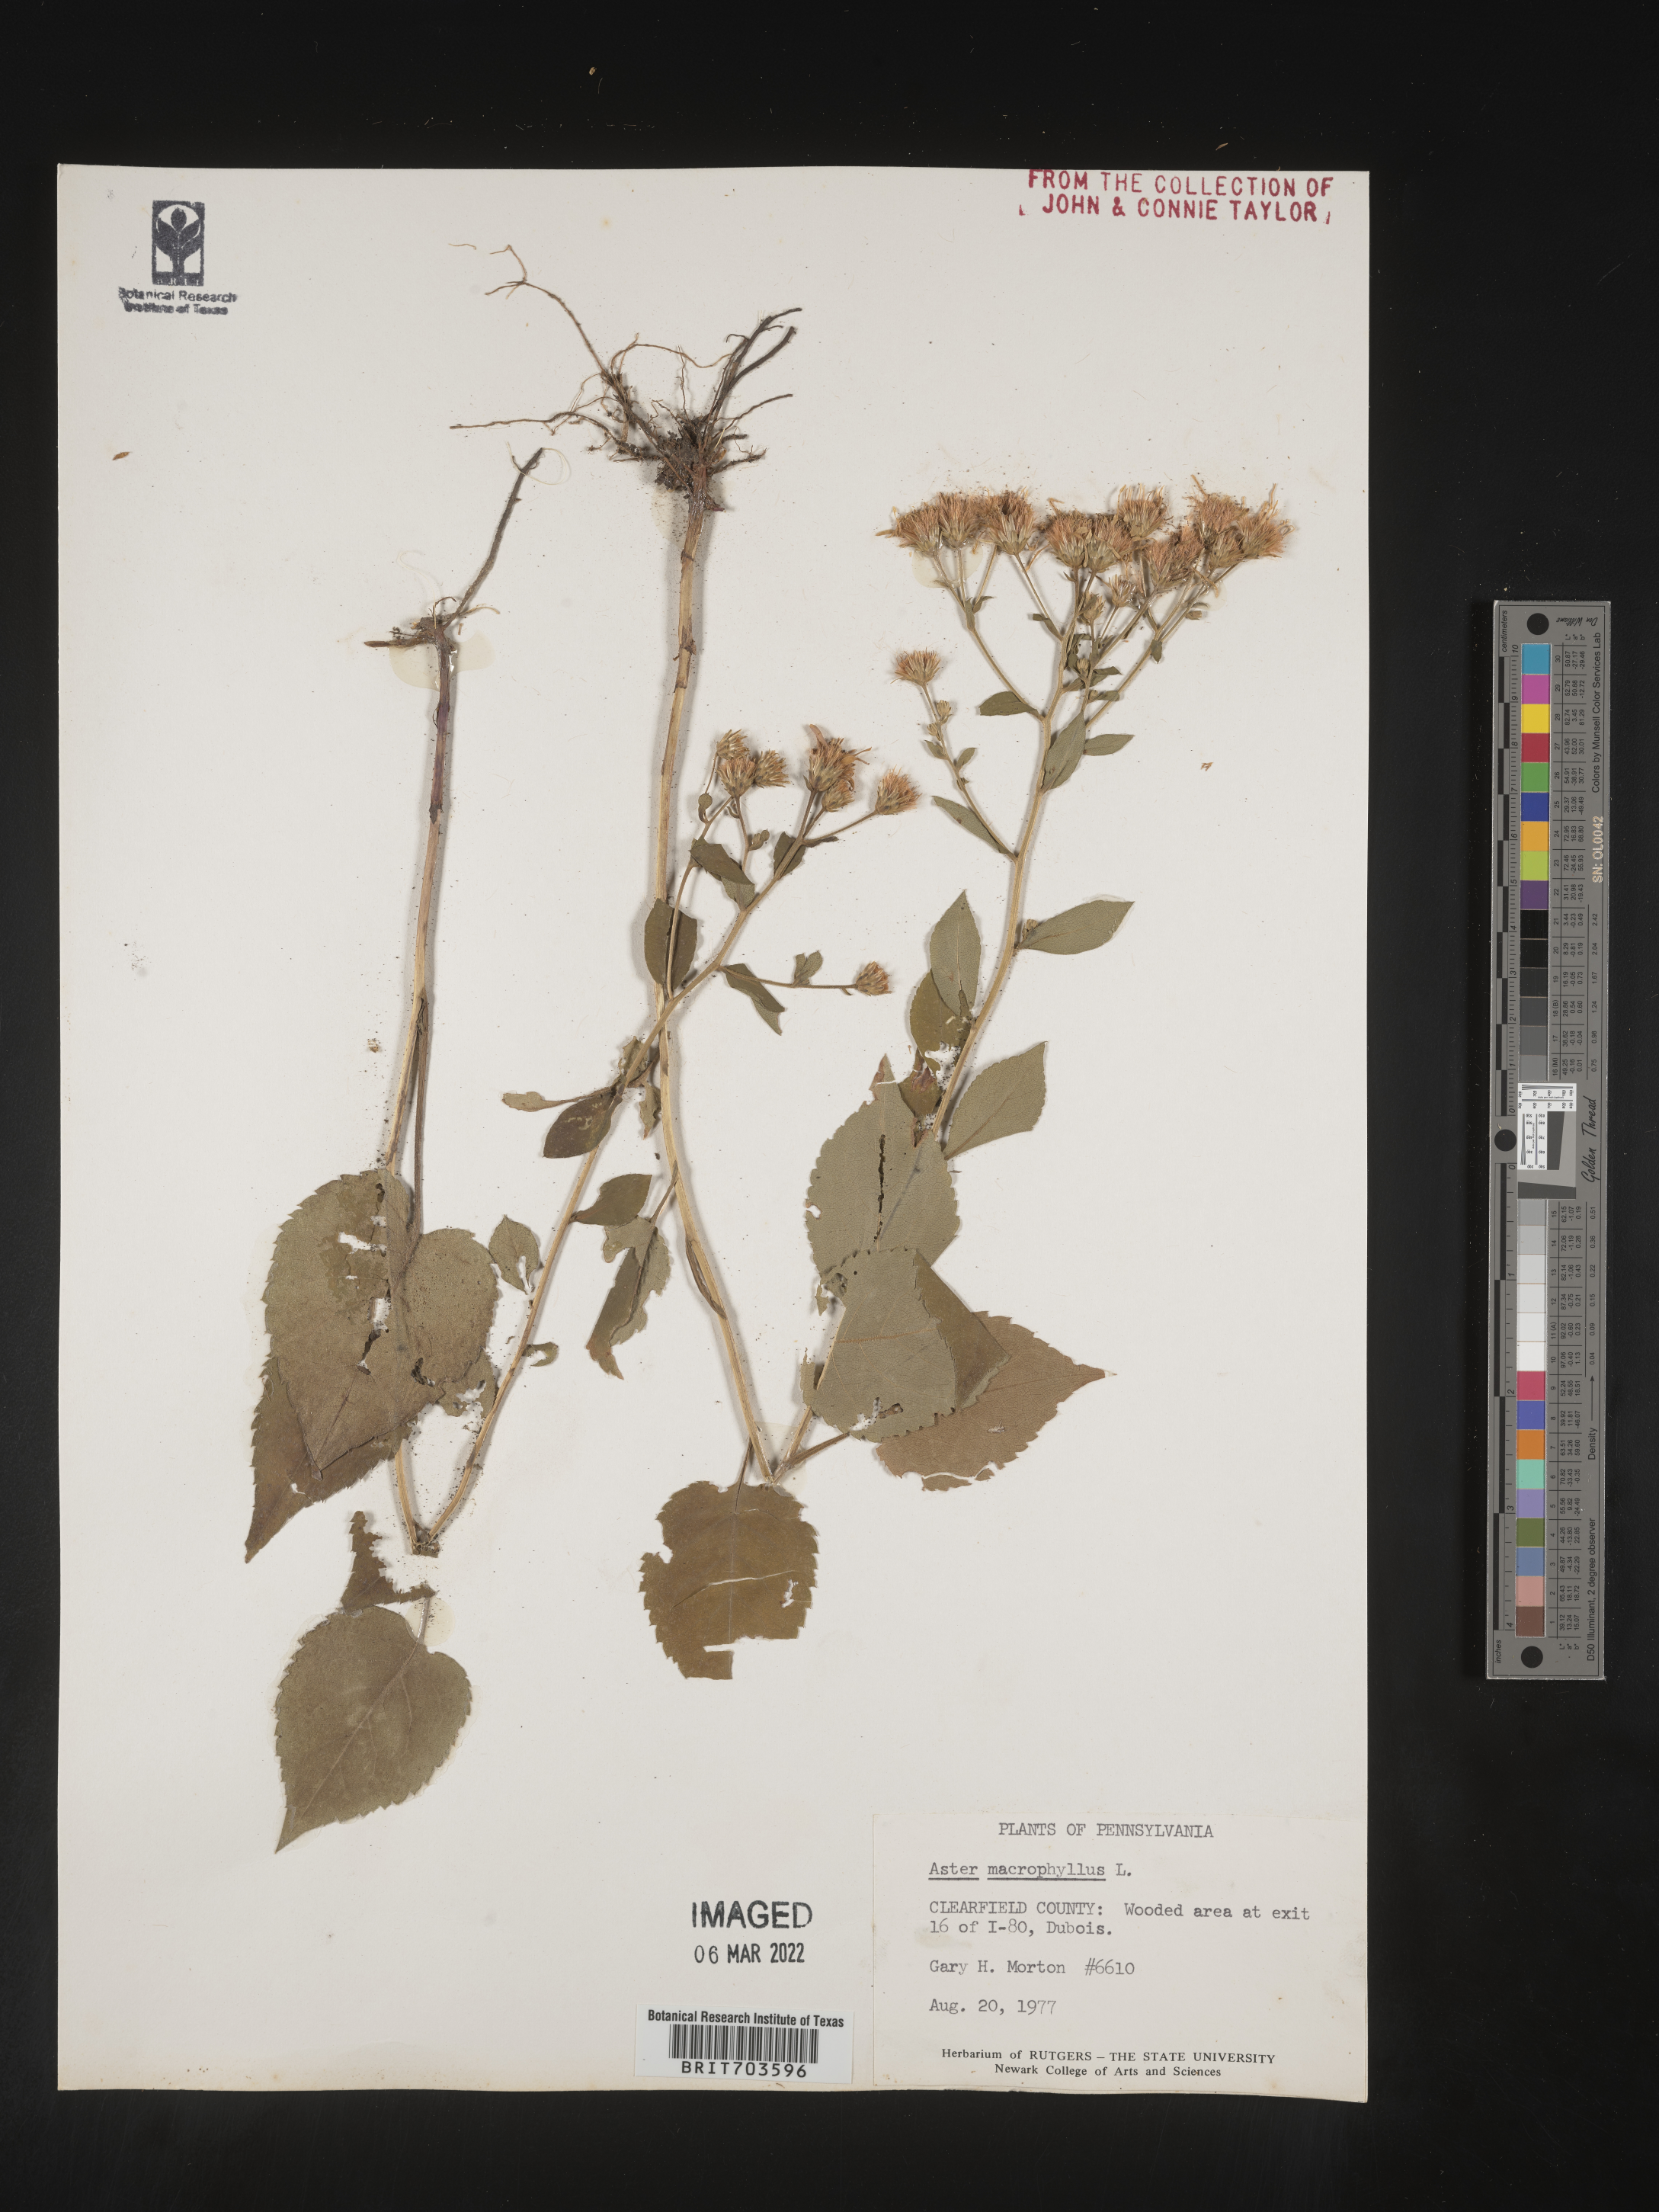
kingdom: Plantae
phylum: Tracheophyta
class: Magnoliopsida
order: Asterales
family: Asteraceae
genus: Eurybia
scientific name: Eurybia macrophylla
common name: Big-leaved aster
